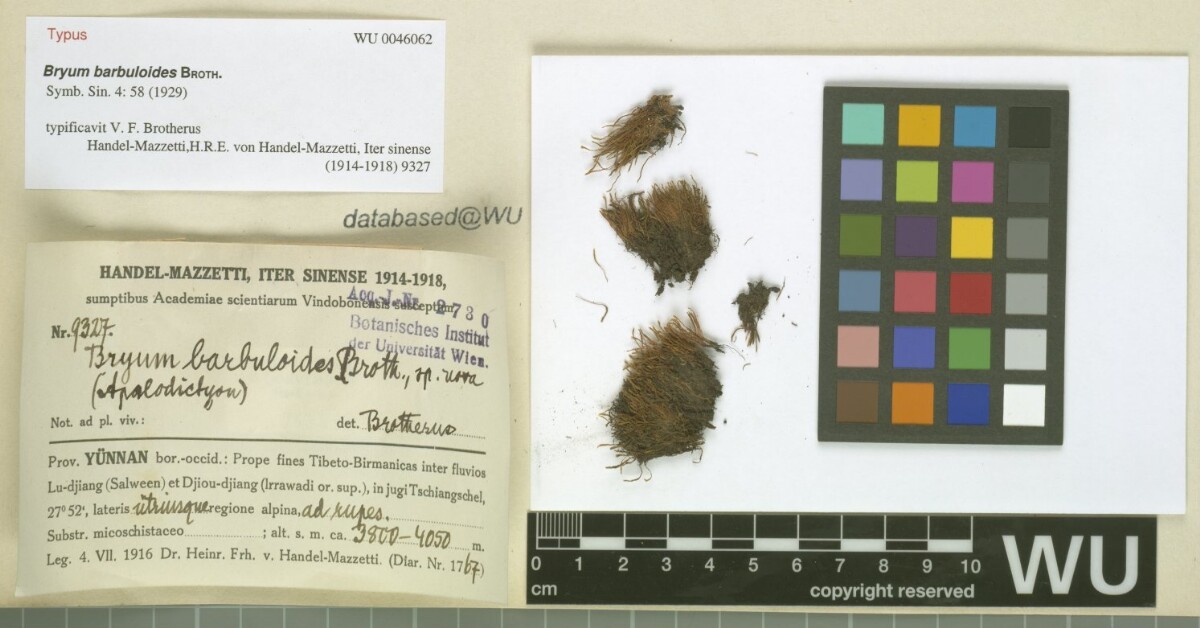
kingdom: Plantae
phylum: Bryophyta
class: Bryopsida
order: Bryales
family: Mniaceae
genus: Pohlia
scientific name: Pohlia barbuloides
